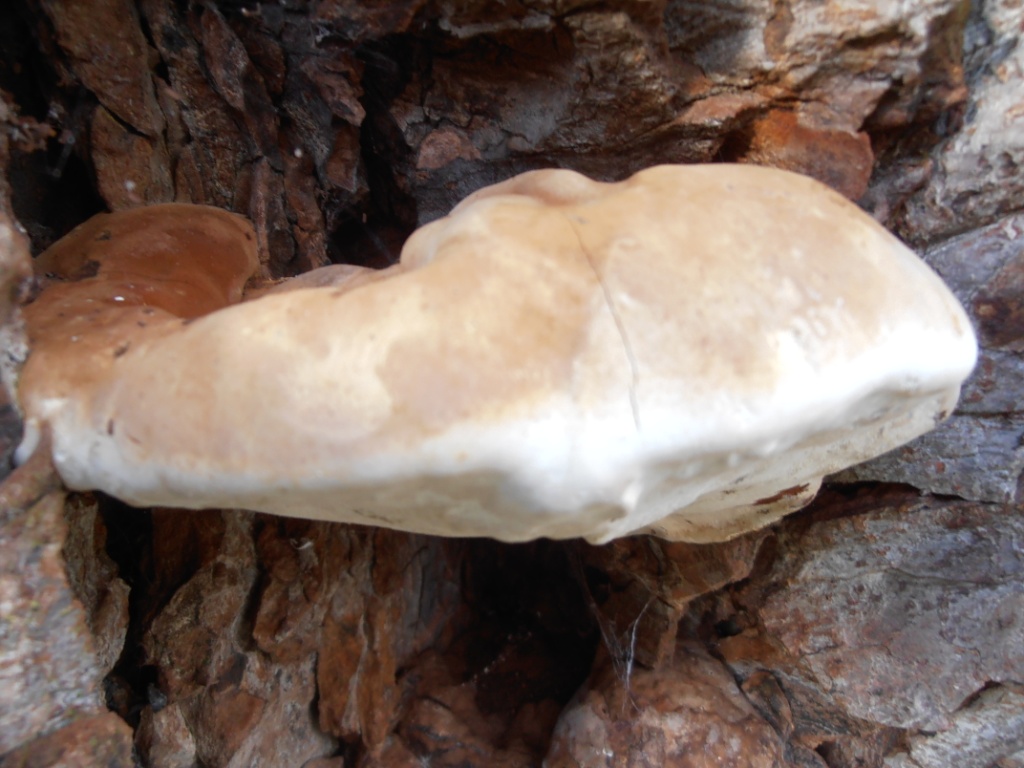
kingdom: Fungi
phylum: Basidiomycota
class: Agaricomycetes
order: Polyporales
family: Polyporaceae
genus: Ganoderma
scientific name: Ganoderma adspersum
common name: grov lakporesvamp
